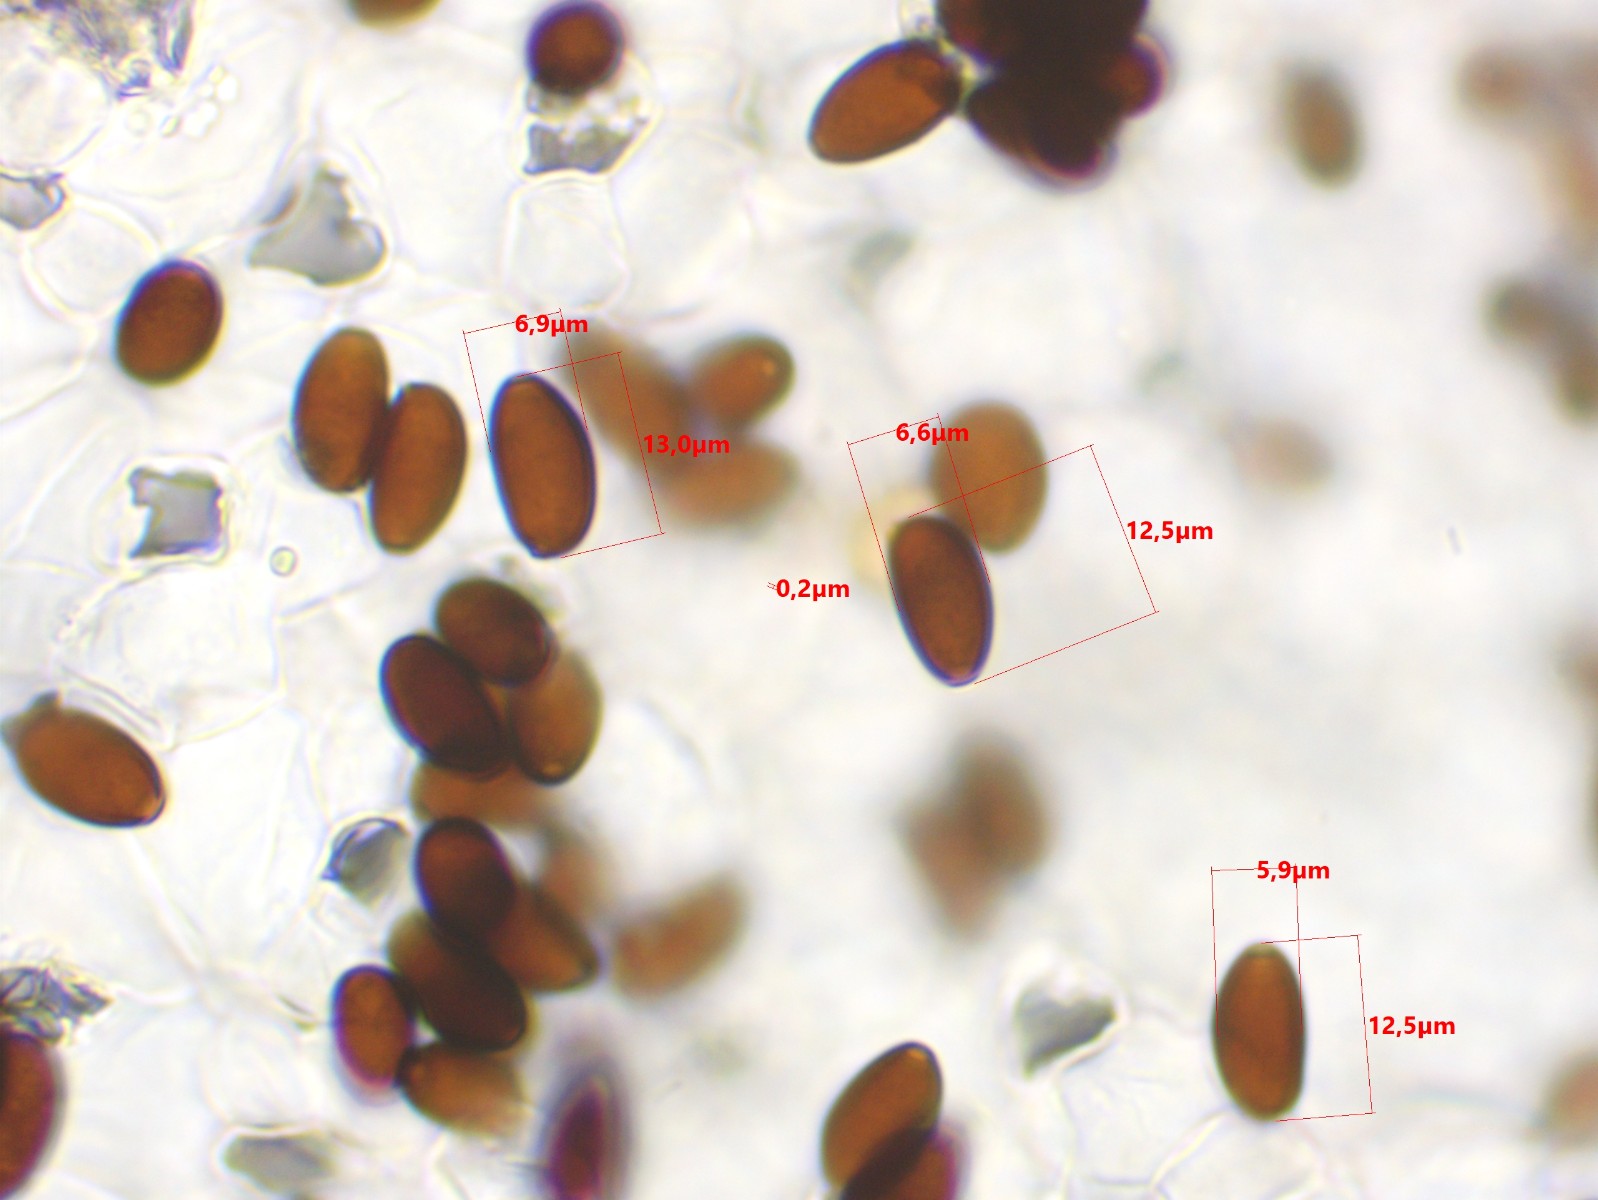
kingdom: Fungi
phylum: Basidiomycota
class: Agaricomycetes
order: Agaricales
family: Psathyrellaceae
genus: Parasola
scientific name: Parasola auricoma
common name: hansens hjulhat
